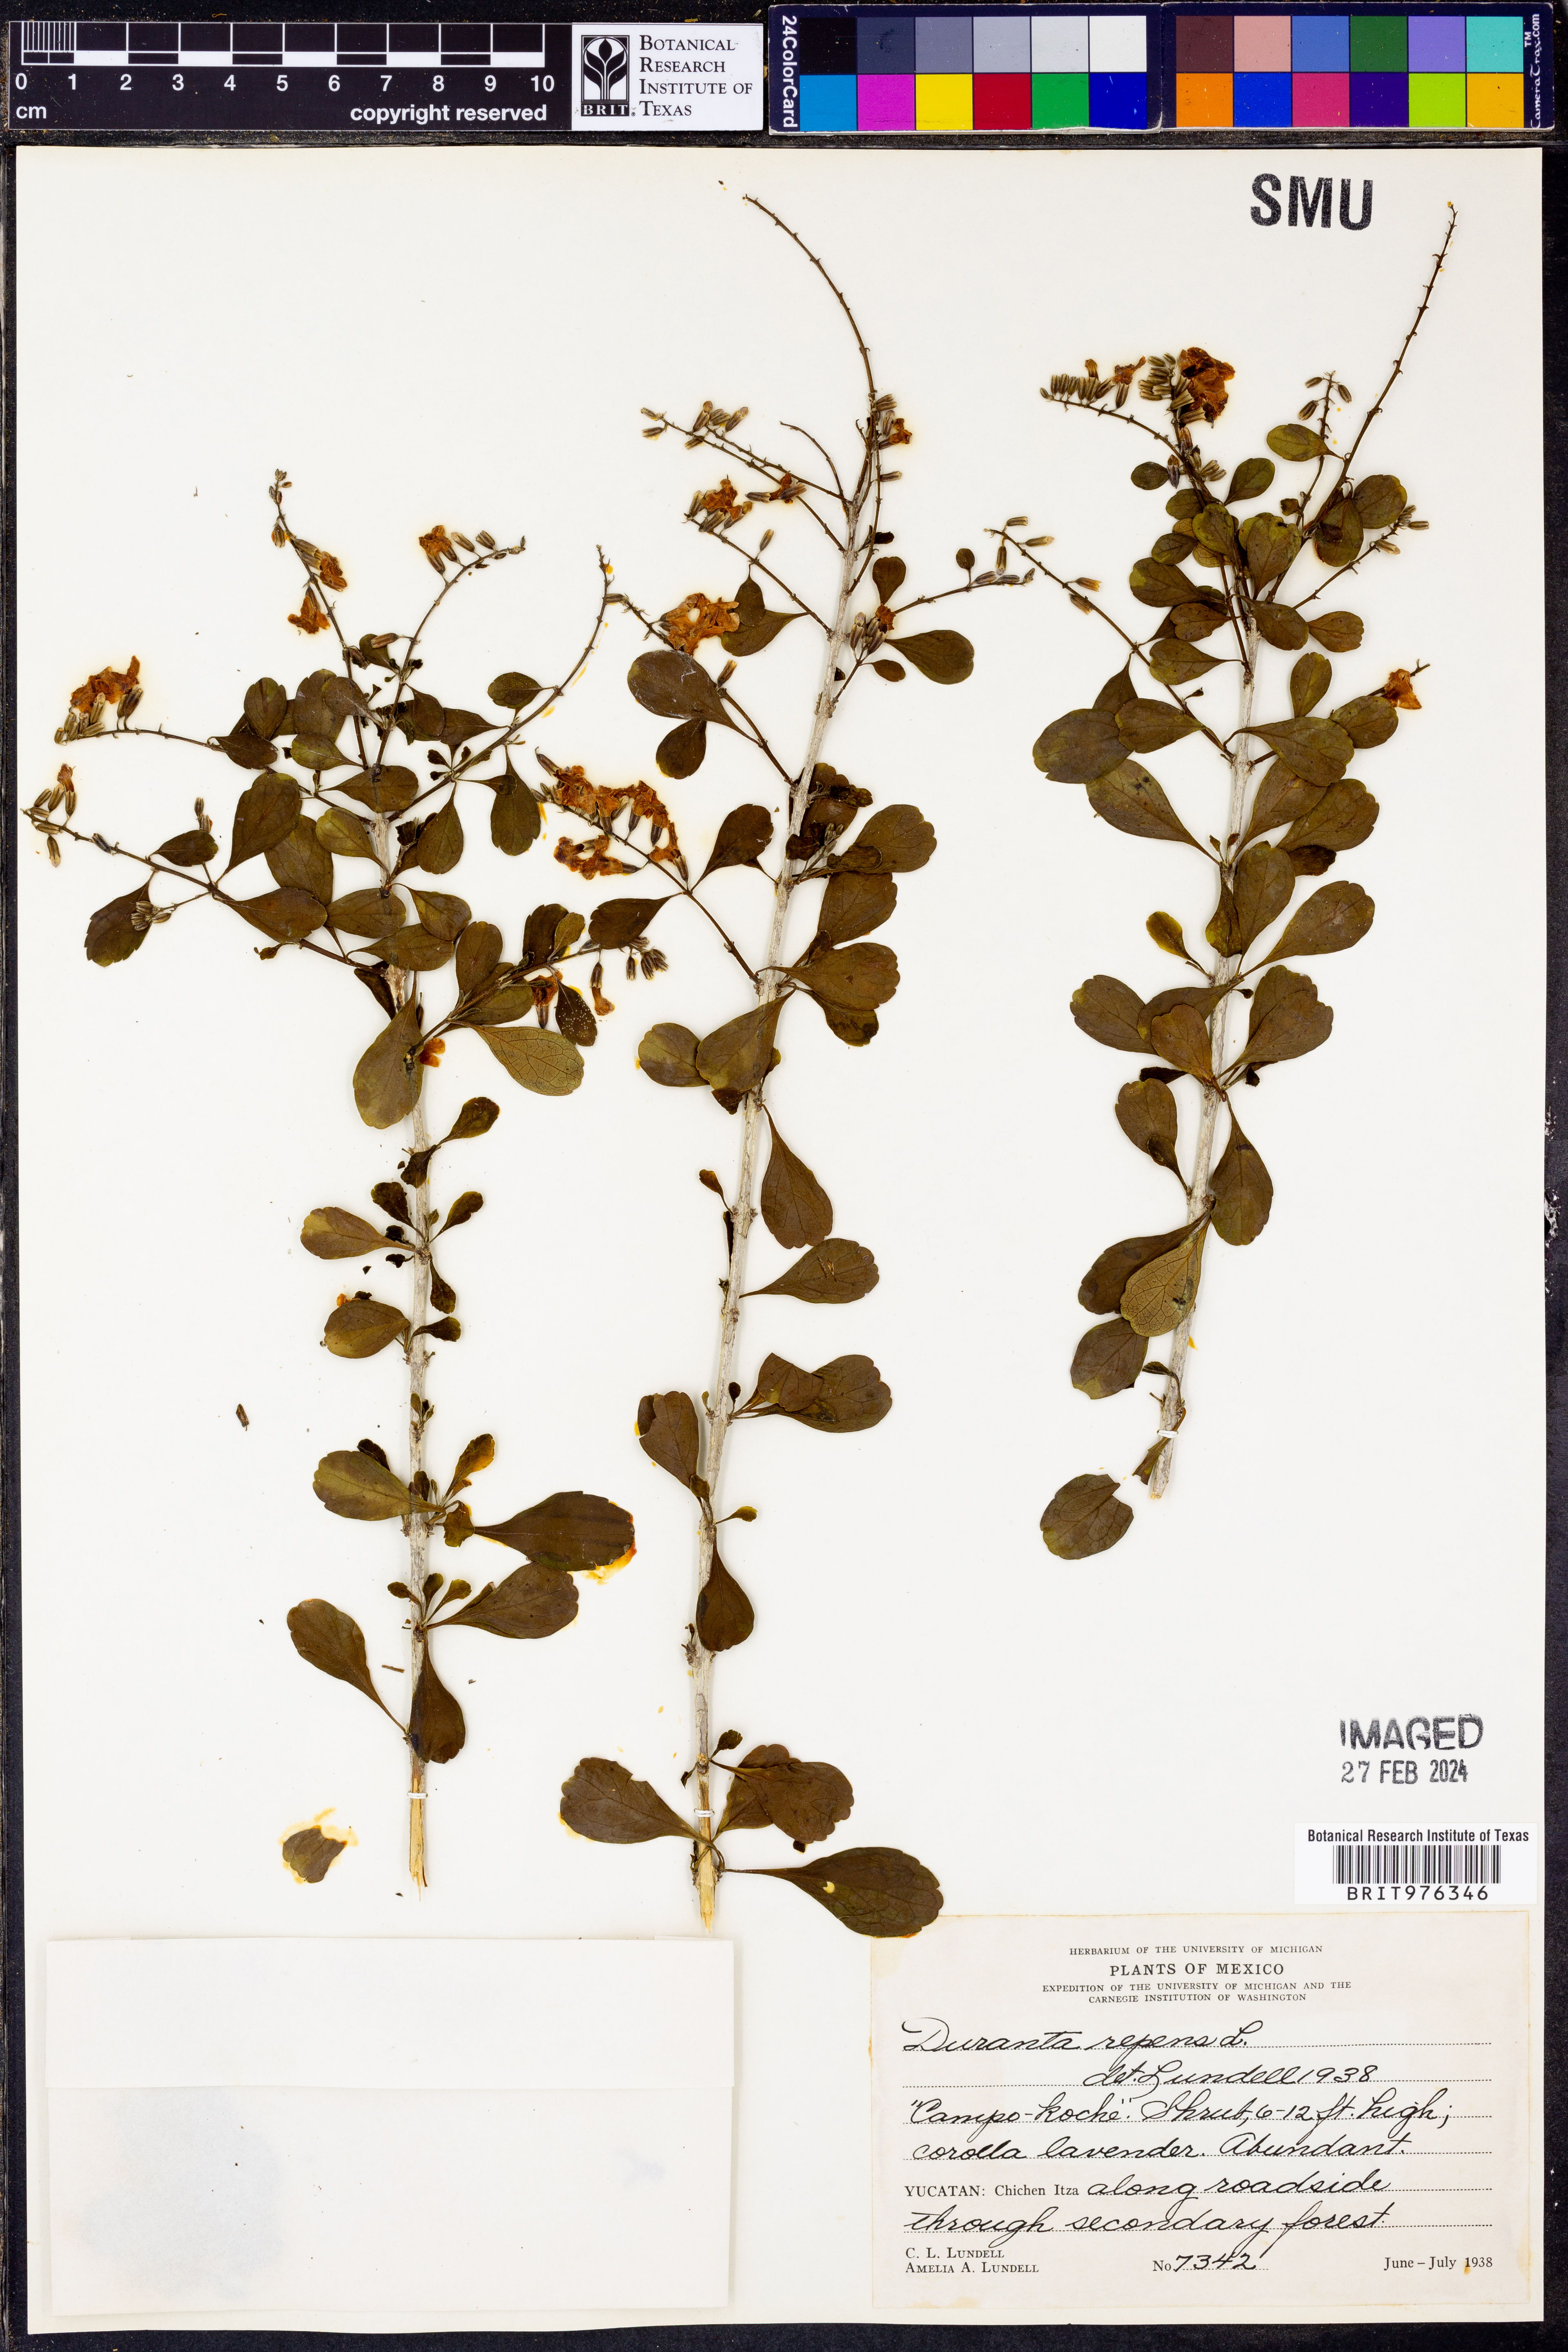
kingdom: Plantae
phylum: Tracheophyta
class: Magnoliopsida
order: Lamiales
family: Verbenaceae
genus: Duranta
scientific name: Duranta
